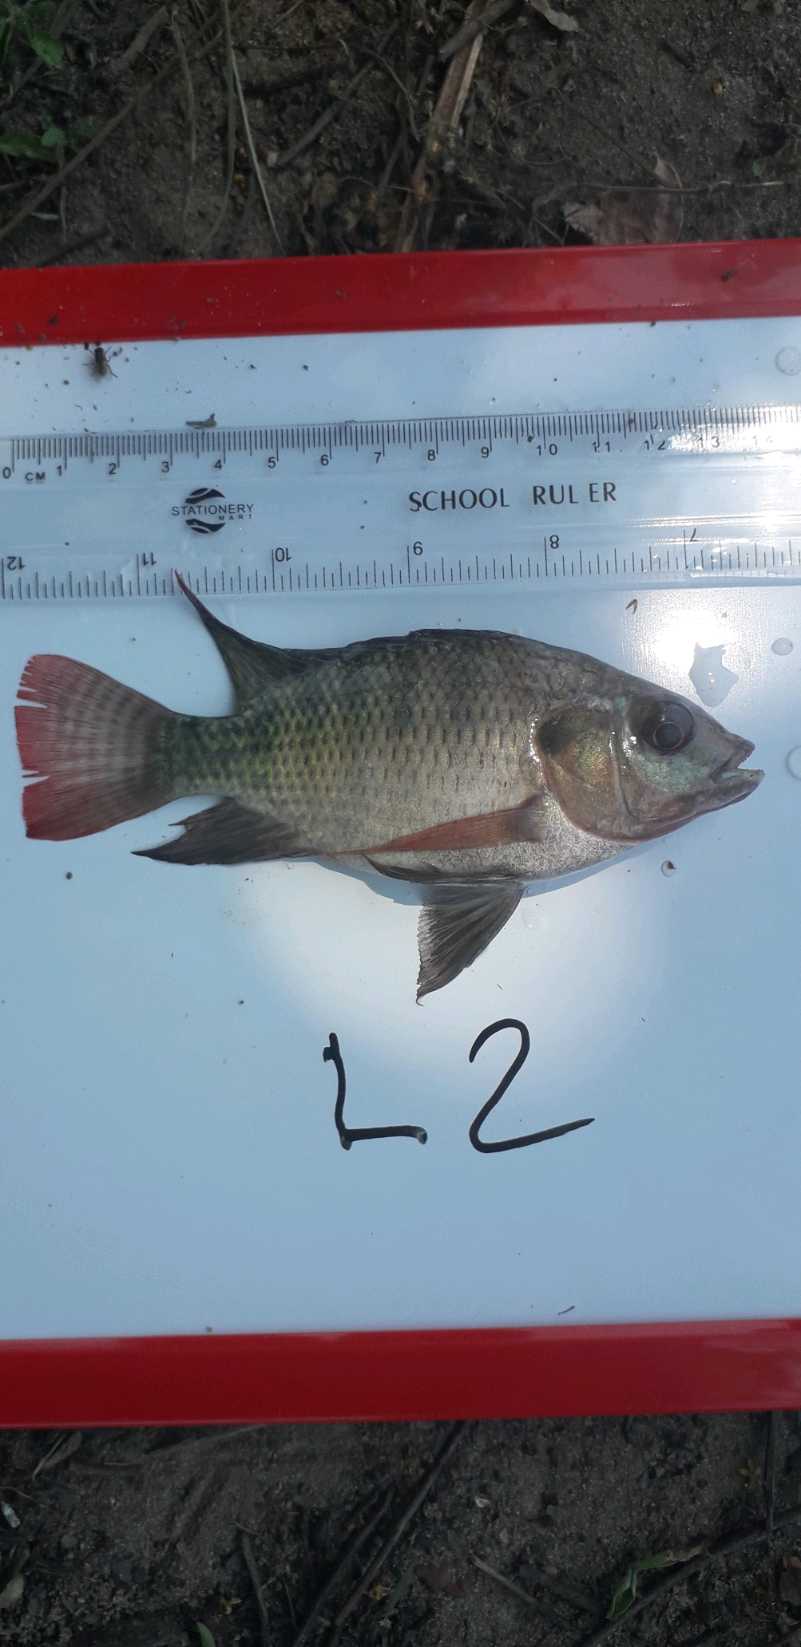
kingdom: Animalia
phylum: Chordata
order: Perciformes
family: Cichlidae
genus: Oreochromis
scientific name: Oreochromis niloticus
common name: Nile tilapia
